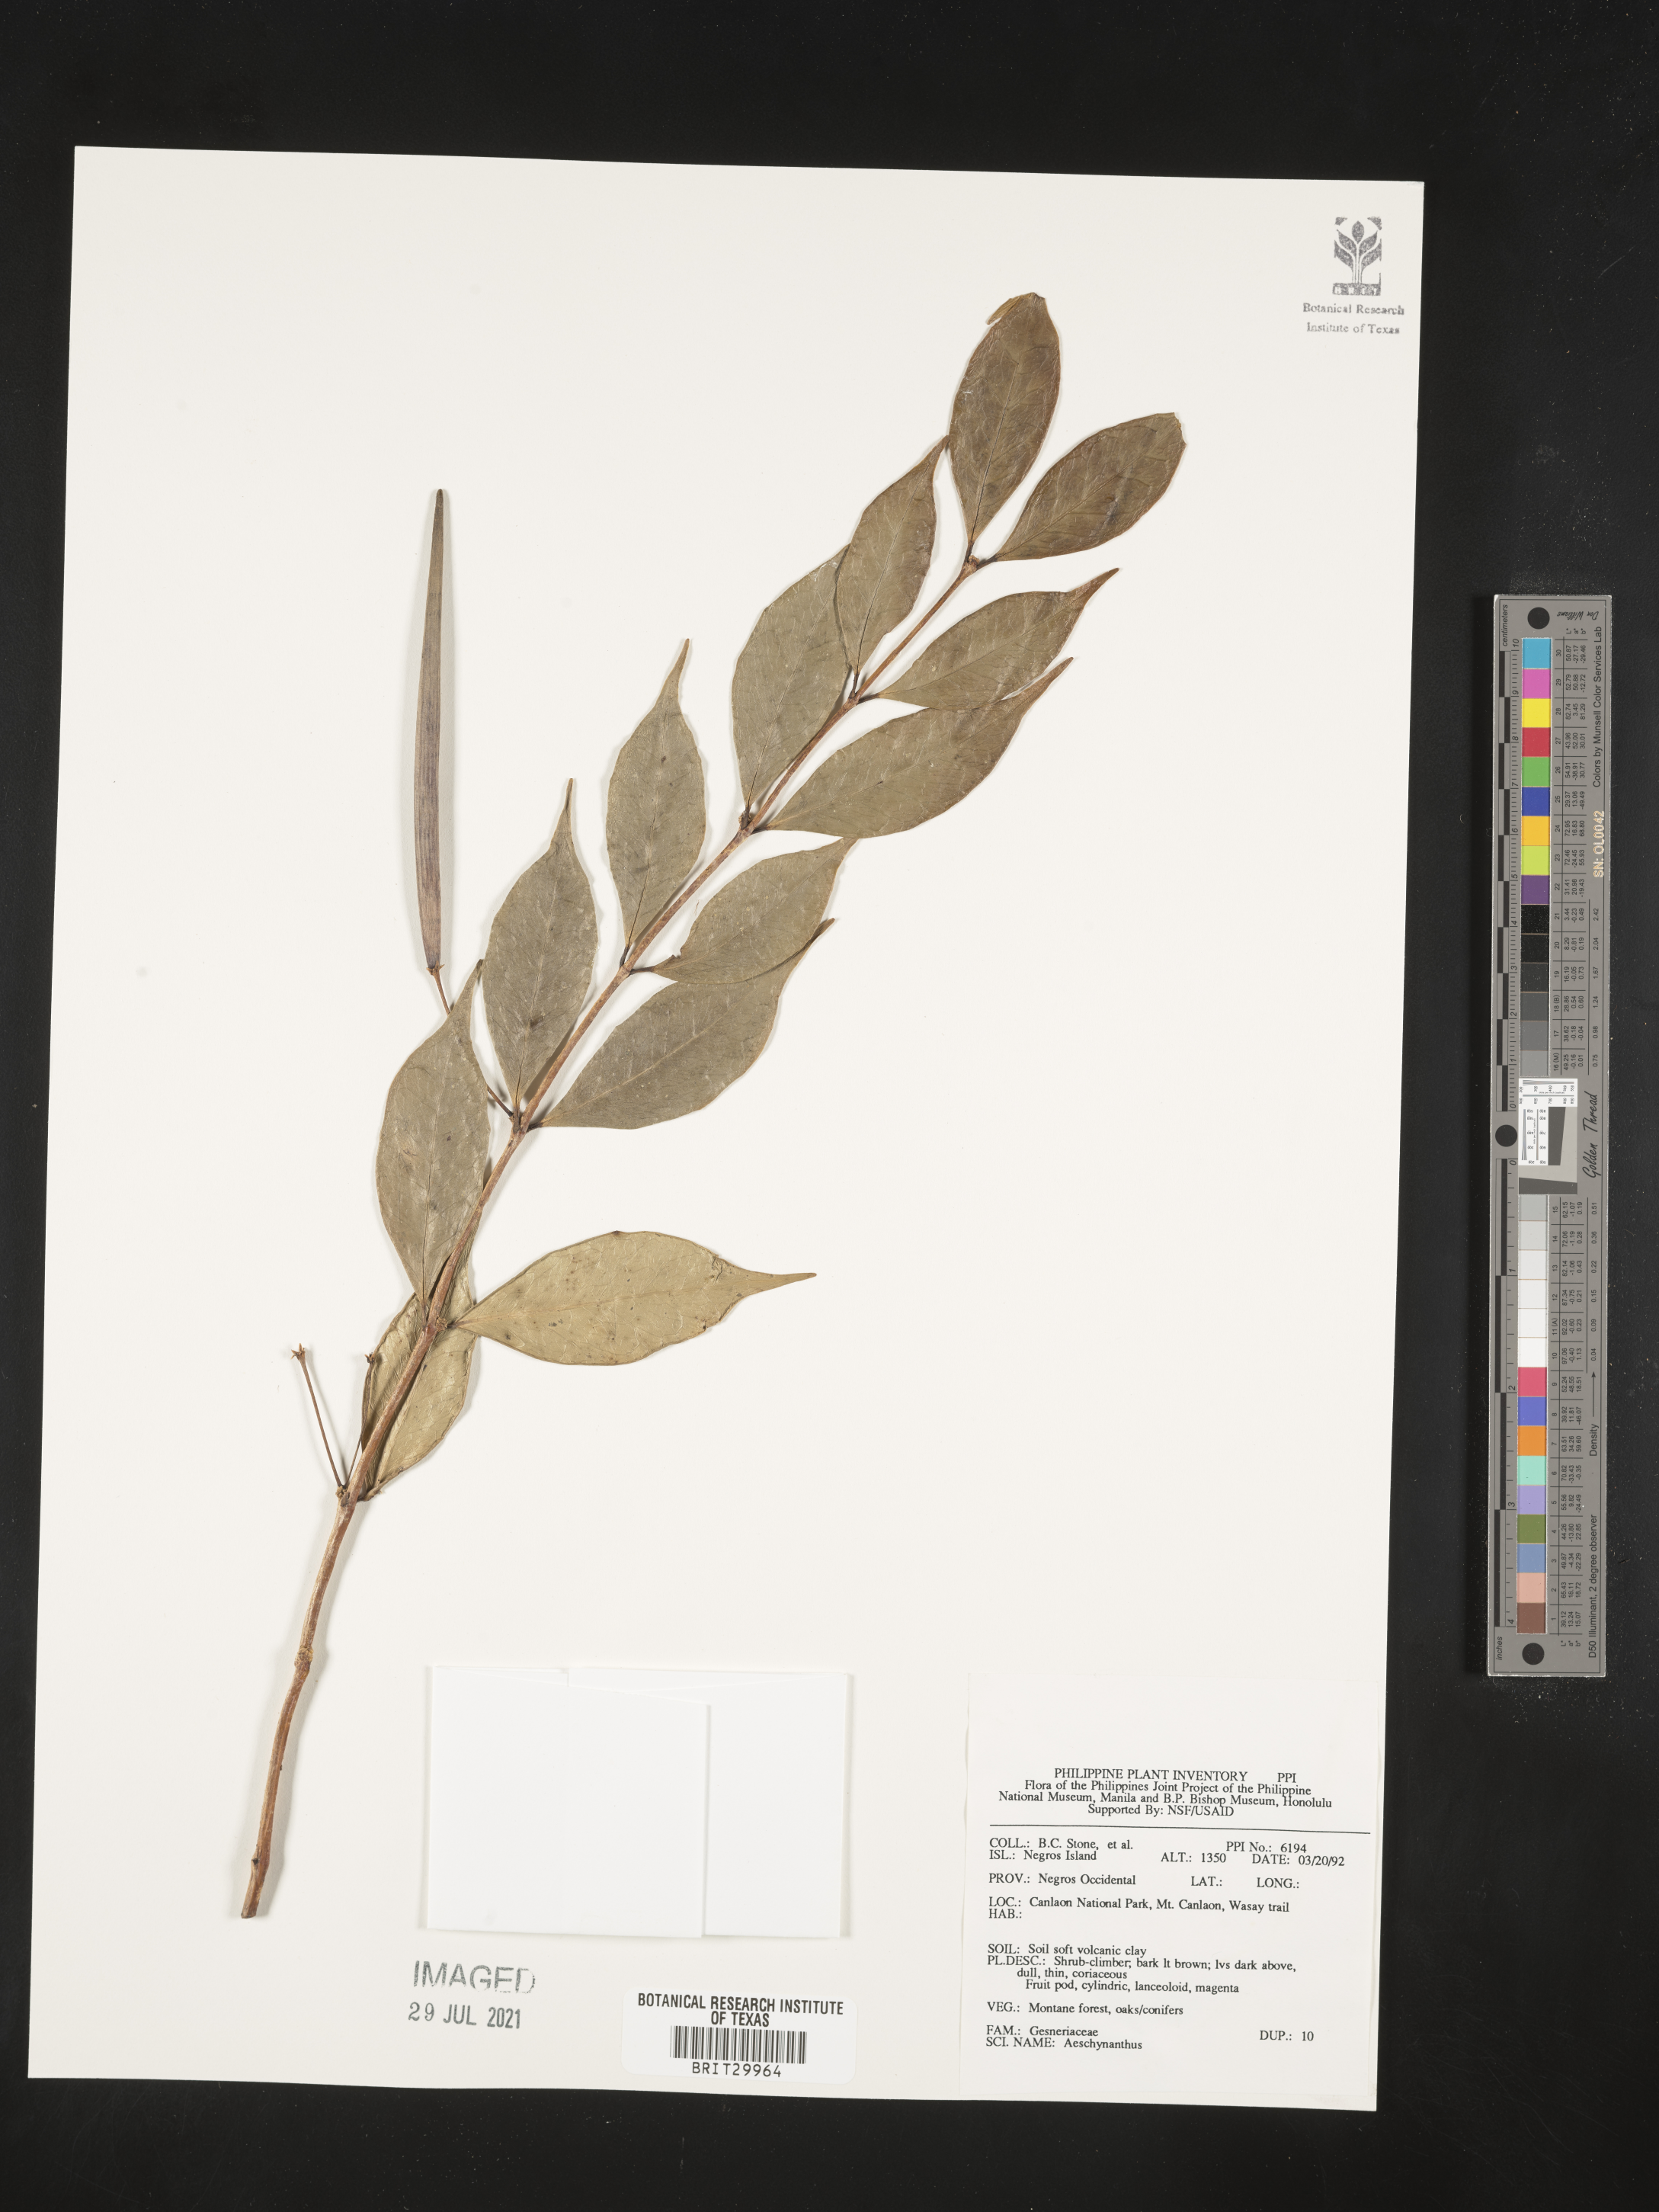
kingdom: Plantae
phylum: Tracheophyta
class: Magnoliopsida
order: Lamiales
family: Gesneriaceae
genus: Aeschynanthus
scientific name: Aeschynanthus
